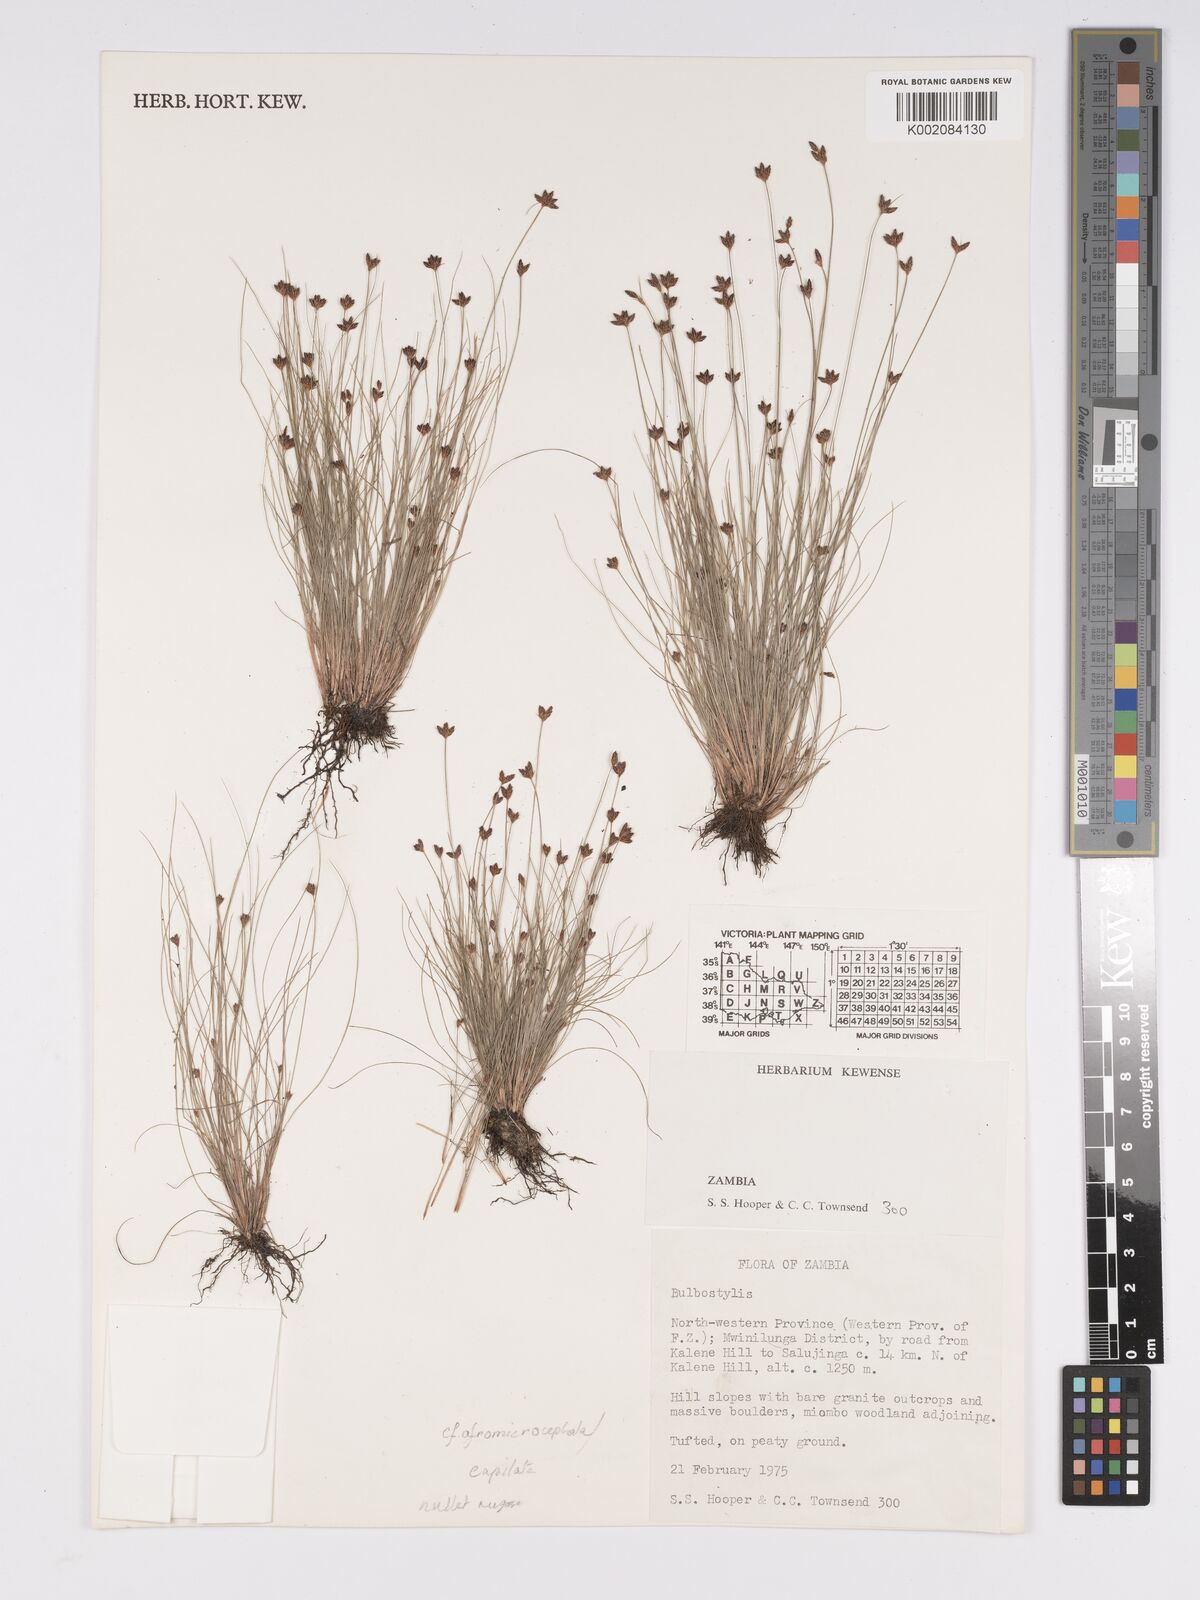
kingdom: Plantae
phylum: Tracheophyta
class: Liliopsida
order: Poales
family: Cyperaceae
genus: Bulbostylis
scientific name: Bulbostylis
